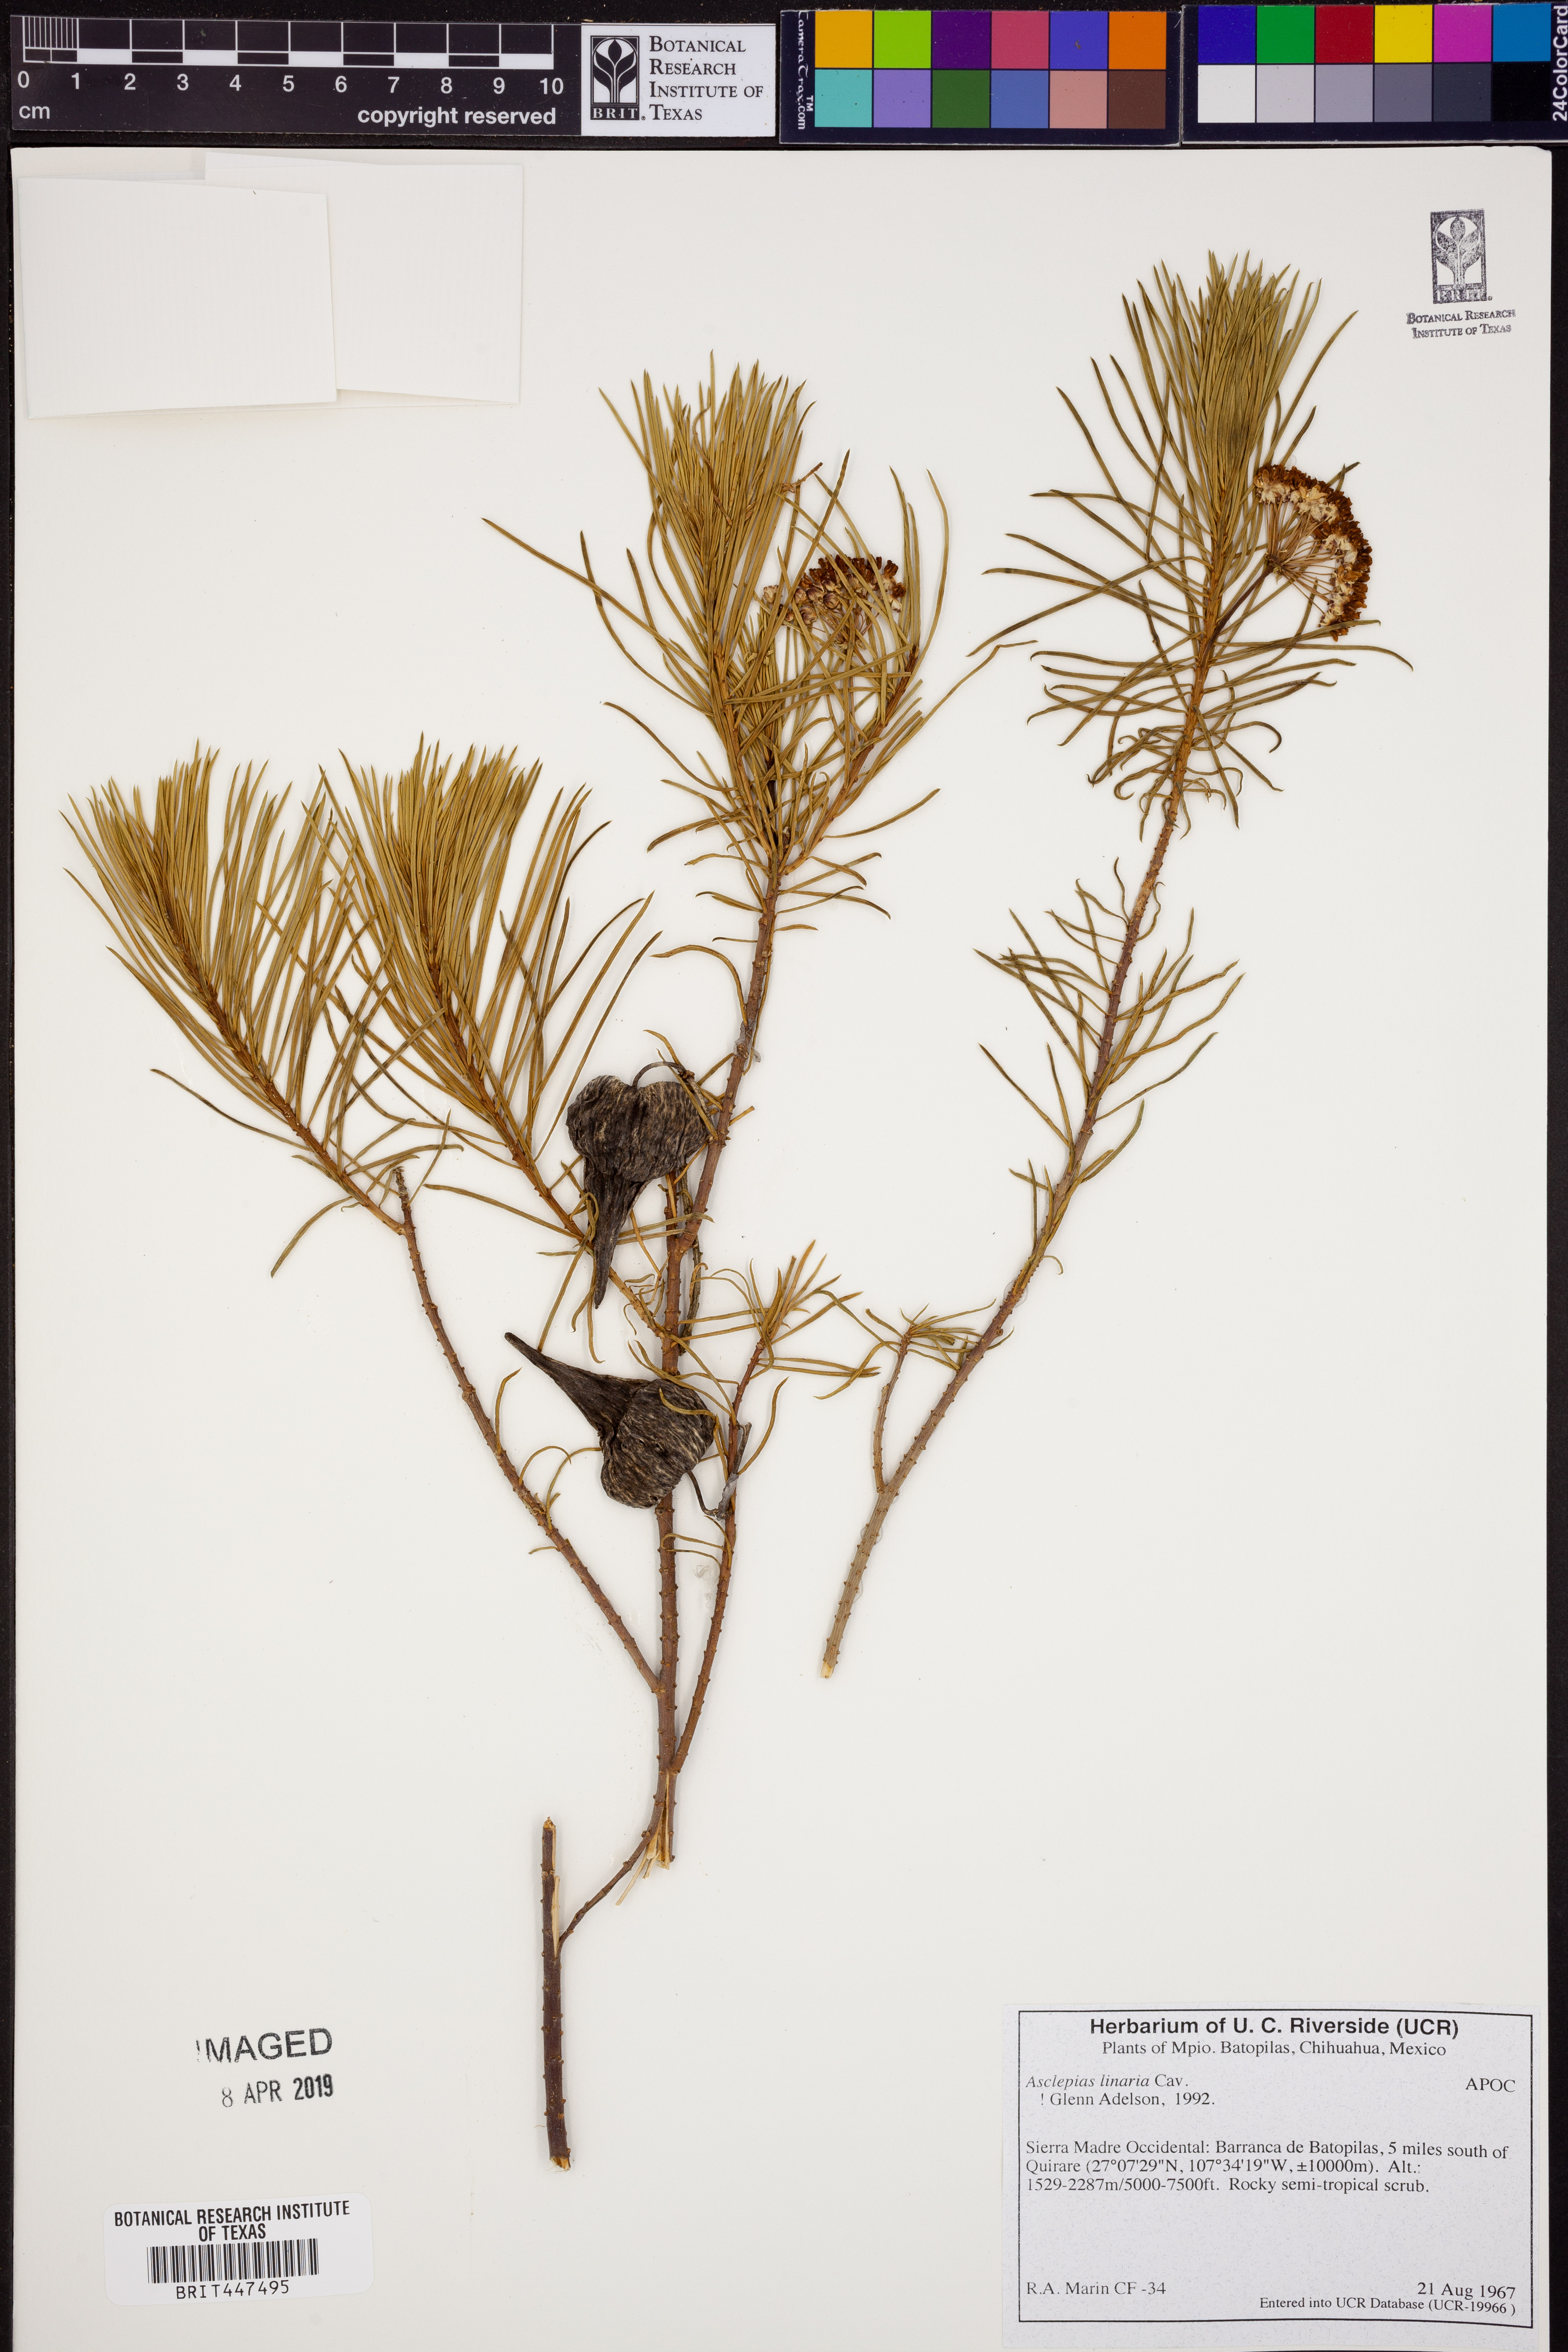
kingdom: Plantae
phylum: Tracheophyta
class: Magnoliopsida
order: Gentianales
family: Apocynaceae
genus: Asclepias
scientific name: Asclepias linaria
